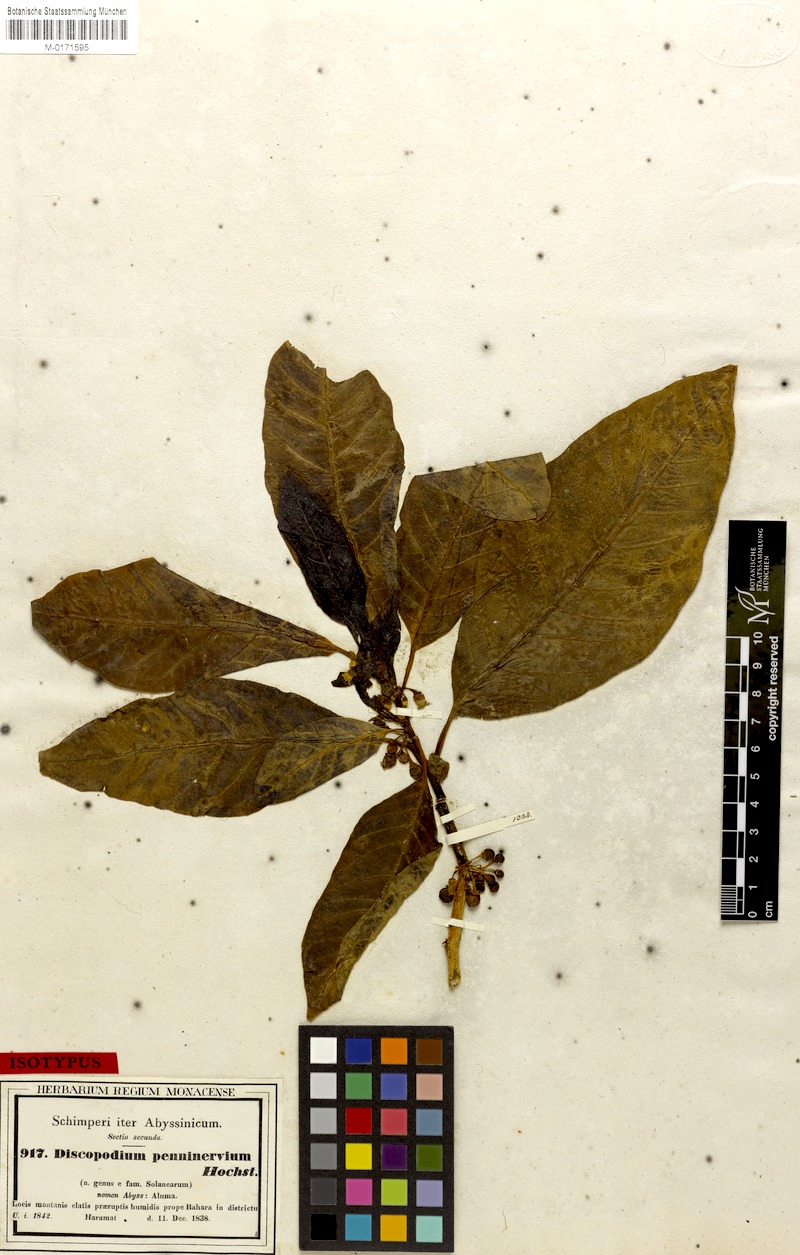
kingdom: Plantae
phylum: Tracheophyta
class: Magnoliopsida
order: Solanales
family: Solanaceae
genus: Discopodium
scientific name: Discopodium penninervium
